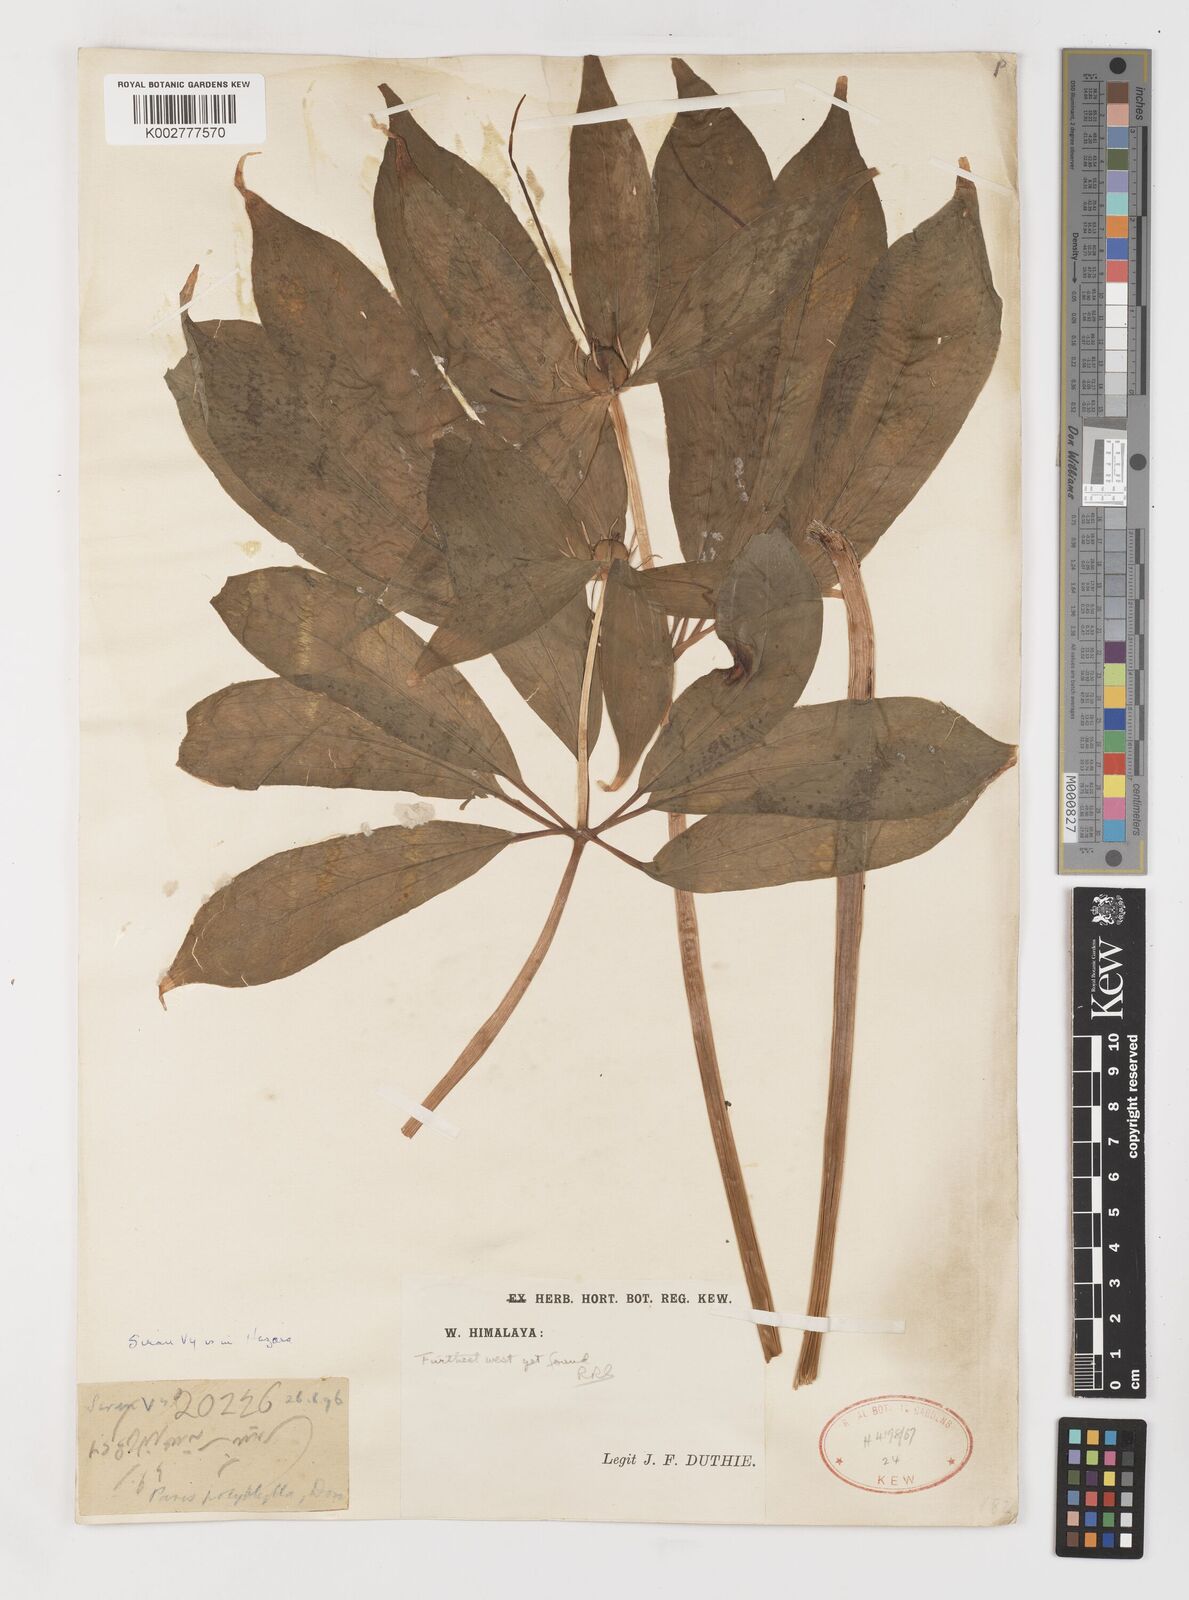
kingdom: Plantae
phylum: Tracheophyta
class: Liliopsida
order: Liliales
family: Melanthiaceae
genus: Paris
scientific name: Paris polyphylla
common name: Love apple
